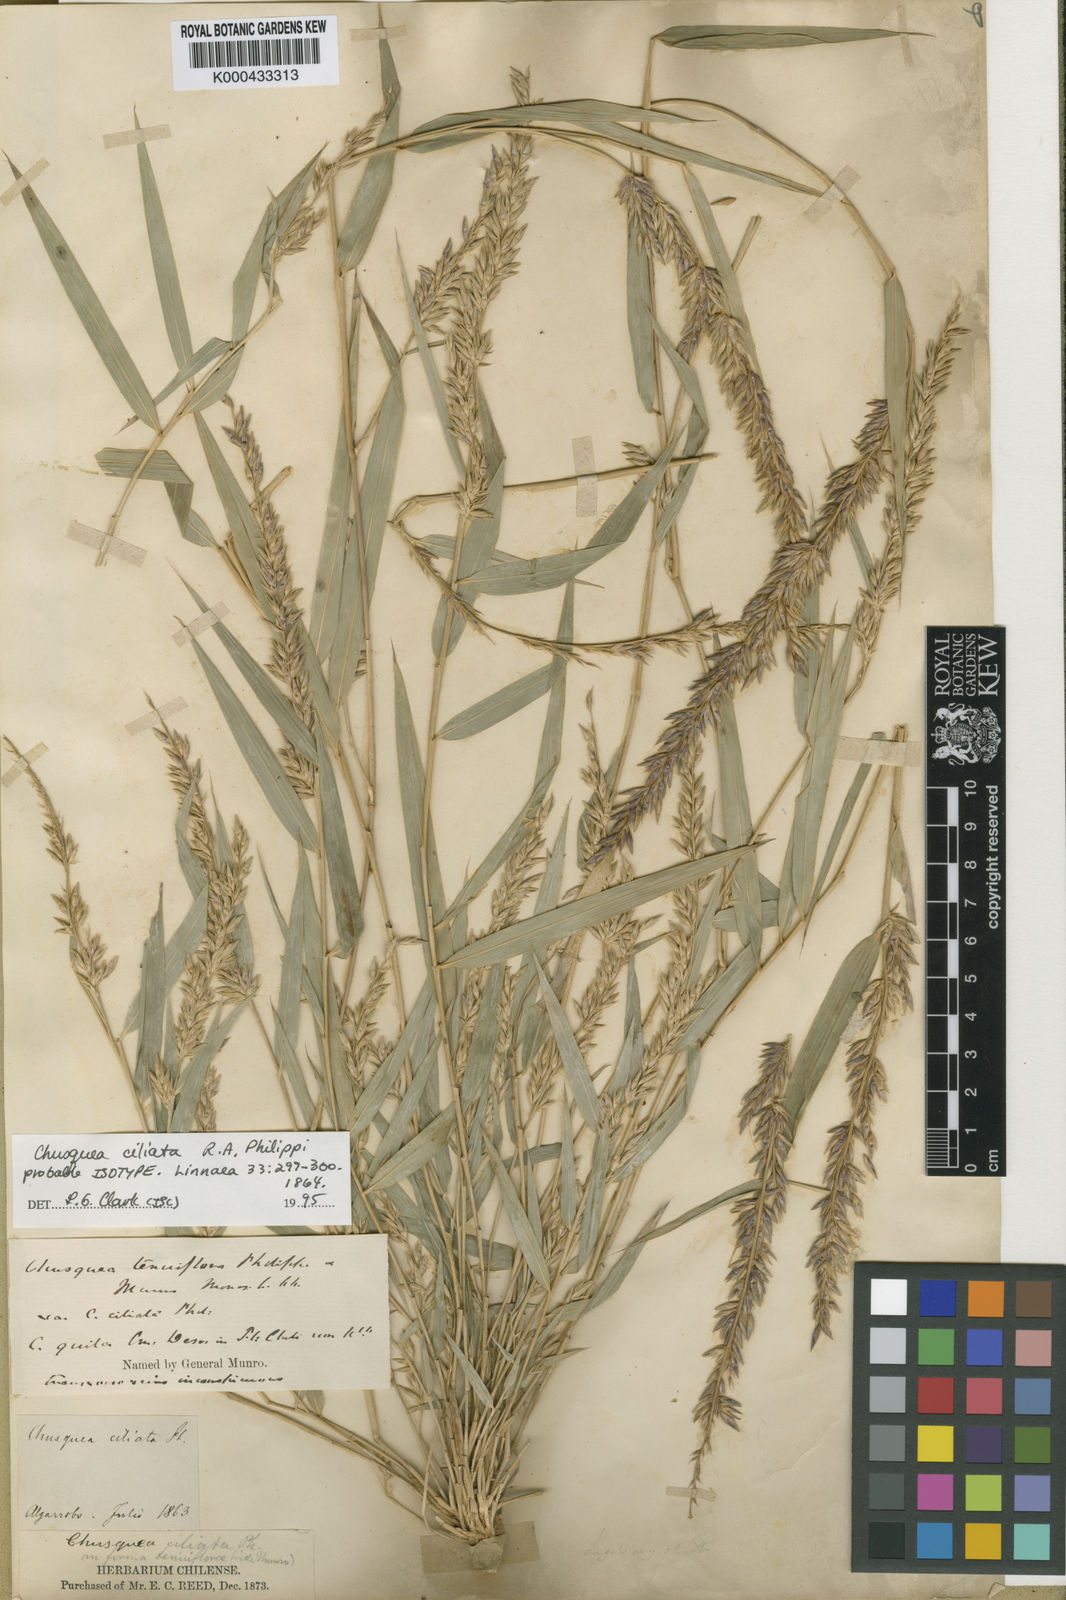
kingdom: Plantae
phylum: Tracheophyta
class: Liliopsida
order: Poales
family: Poaceae
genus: Chusquea
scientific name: Chusquea ciliata
